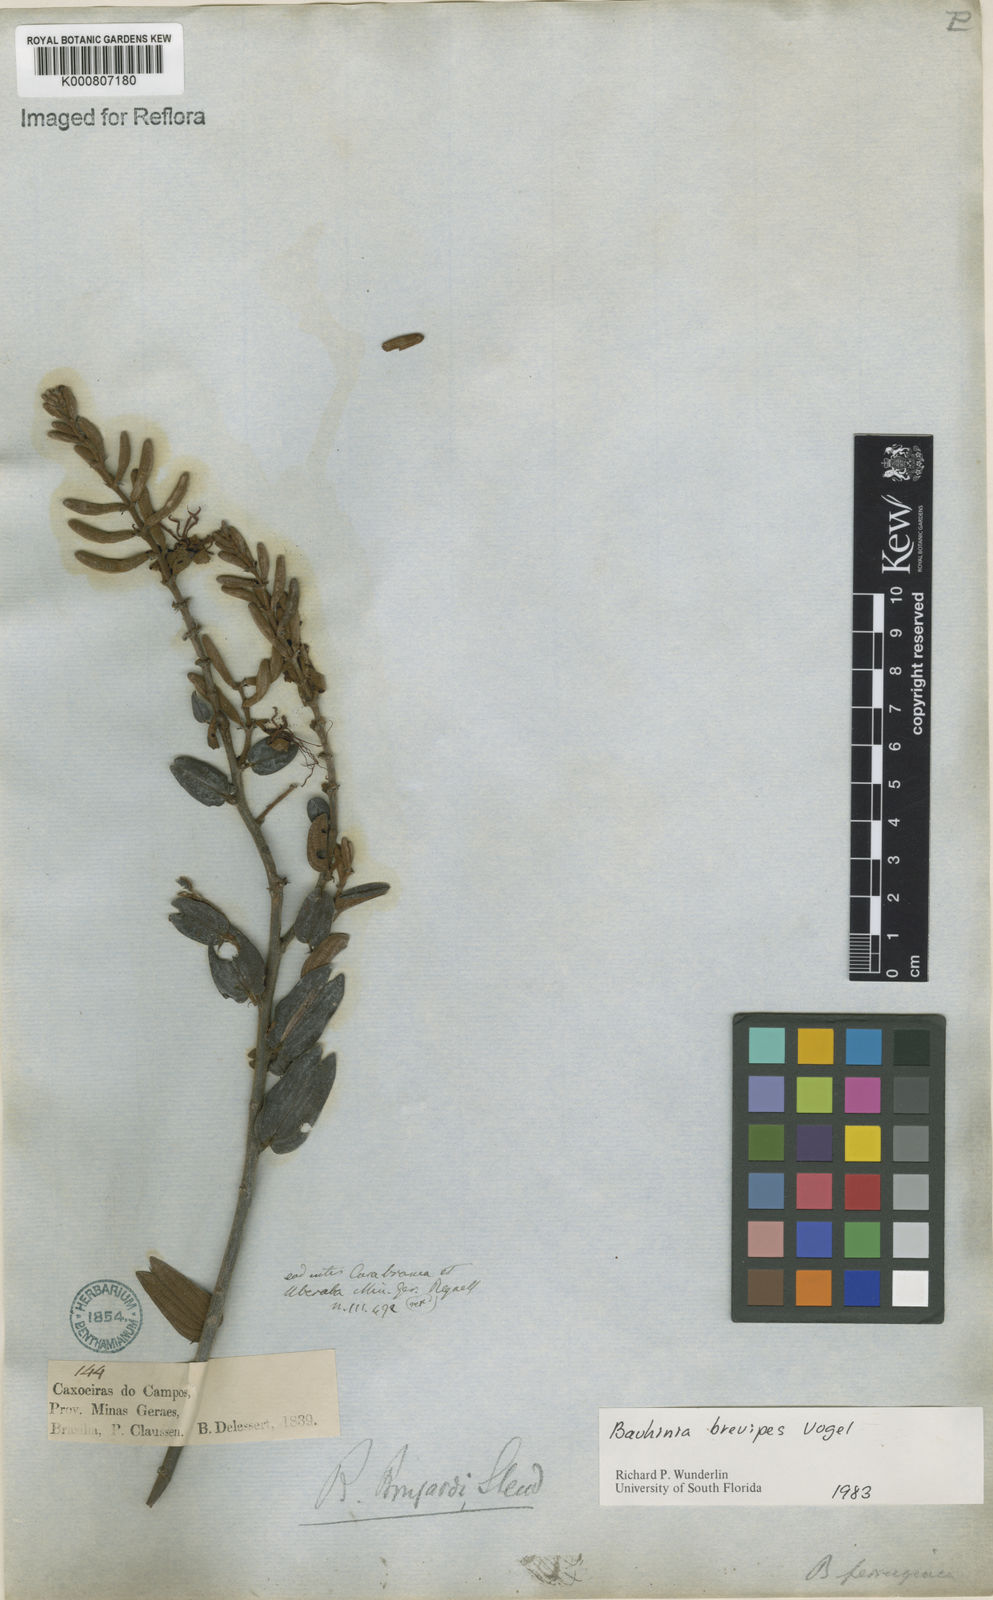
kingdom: Plantae
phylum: Tracheophyta
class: Magnoliopsida
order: Fabales
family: Fabaceae
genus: Bauhinia
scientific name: Bauhinia brevipes
